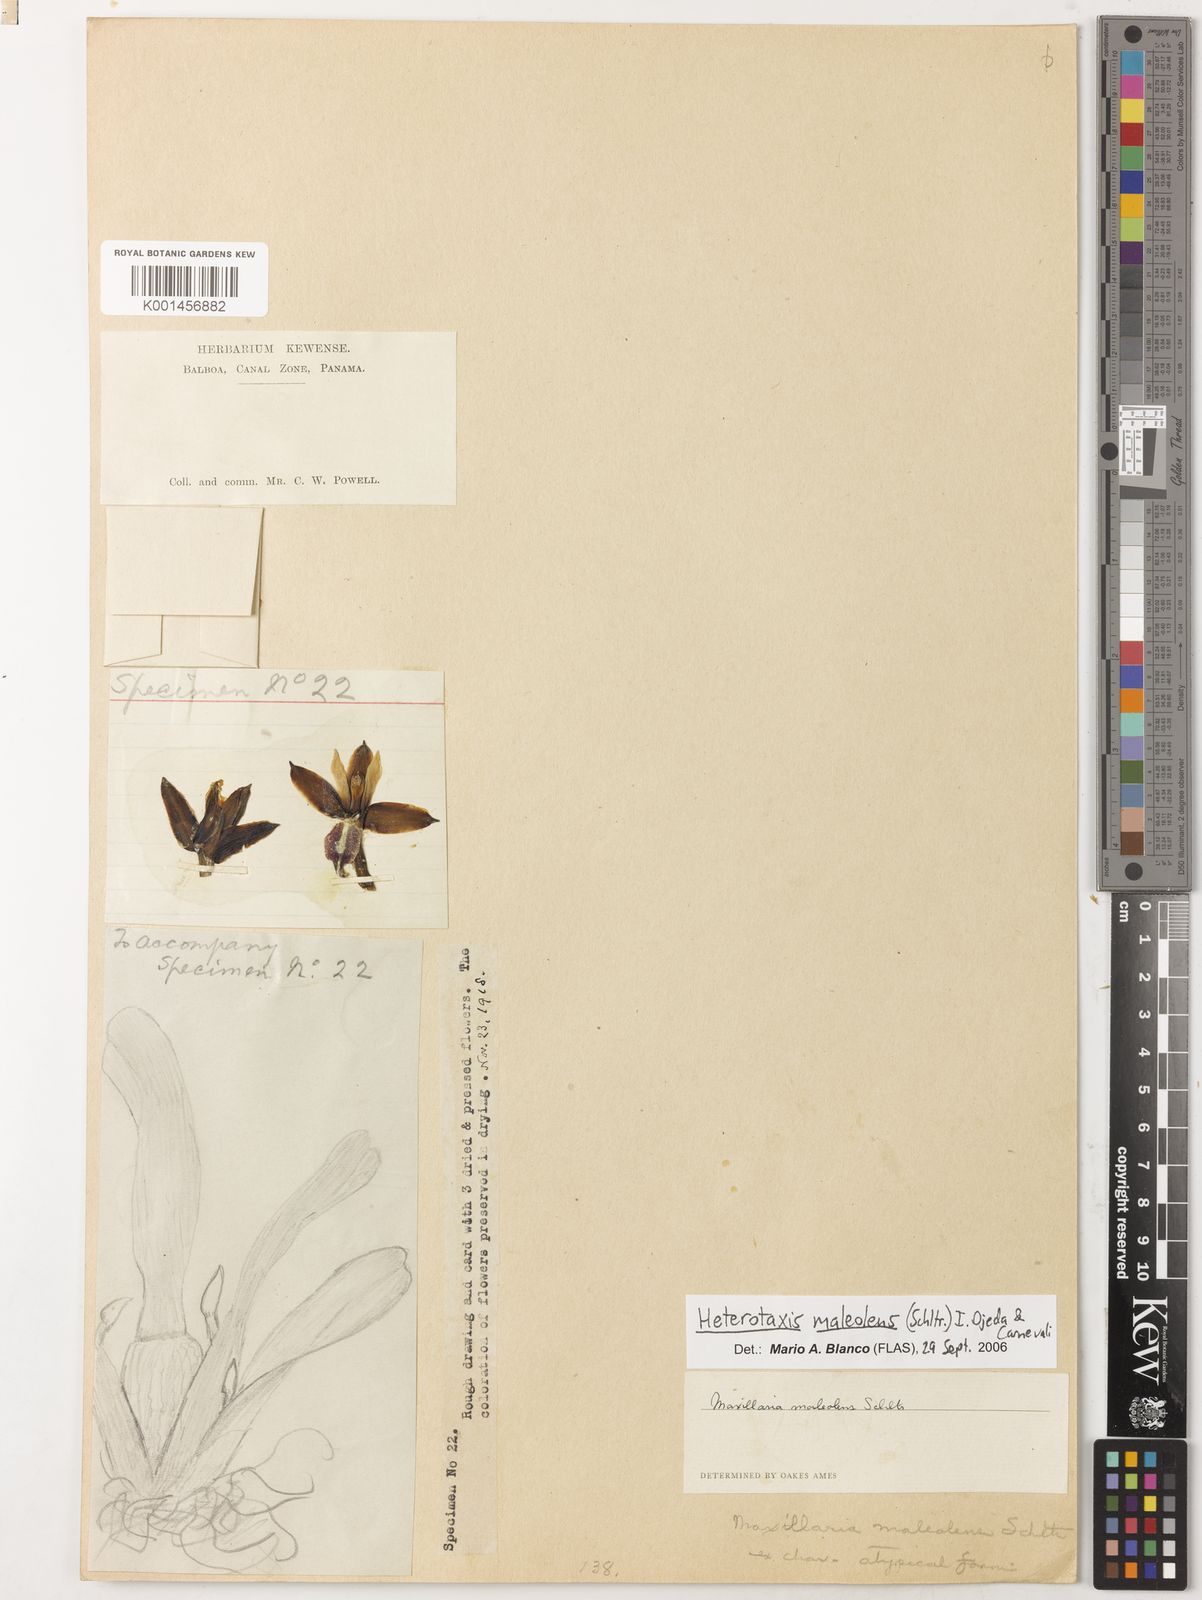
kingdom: Plantae
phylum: Tracheophyta
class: Liliopsida
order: Asparagales
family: Orchidaceae
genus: Maxillaria
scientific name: Maxillaria maleolens
